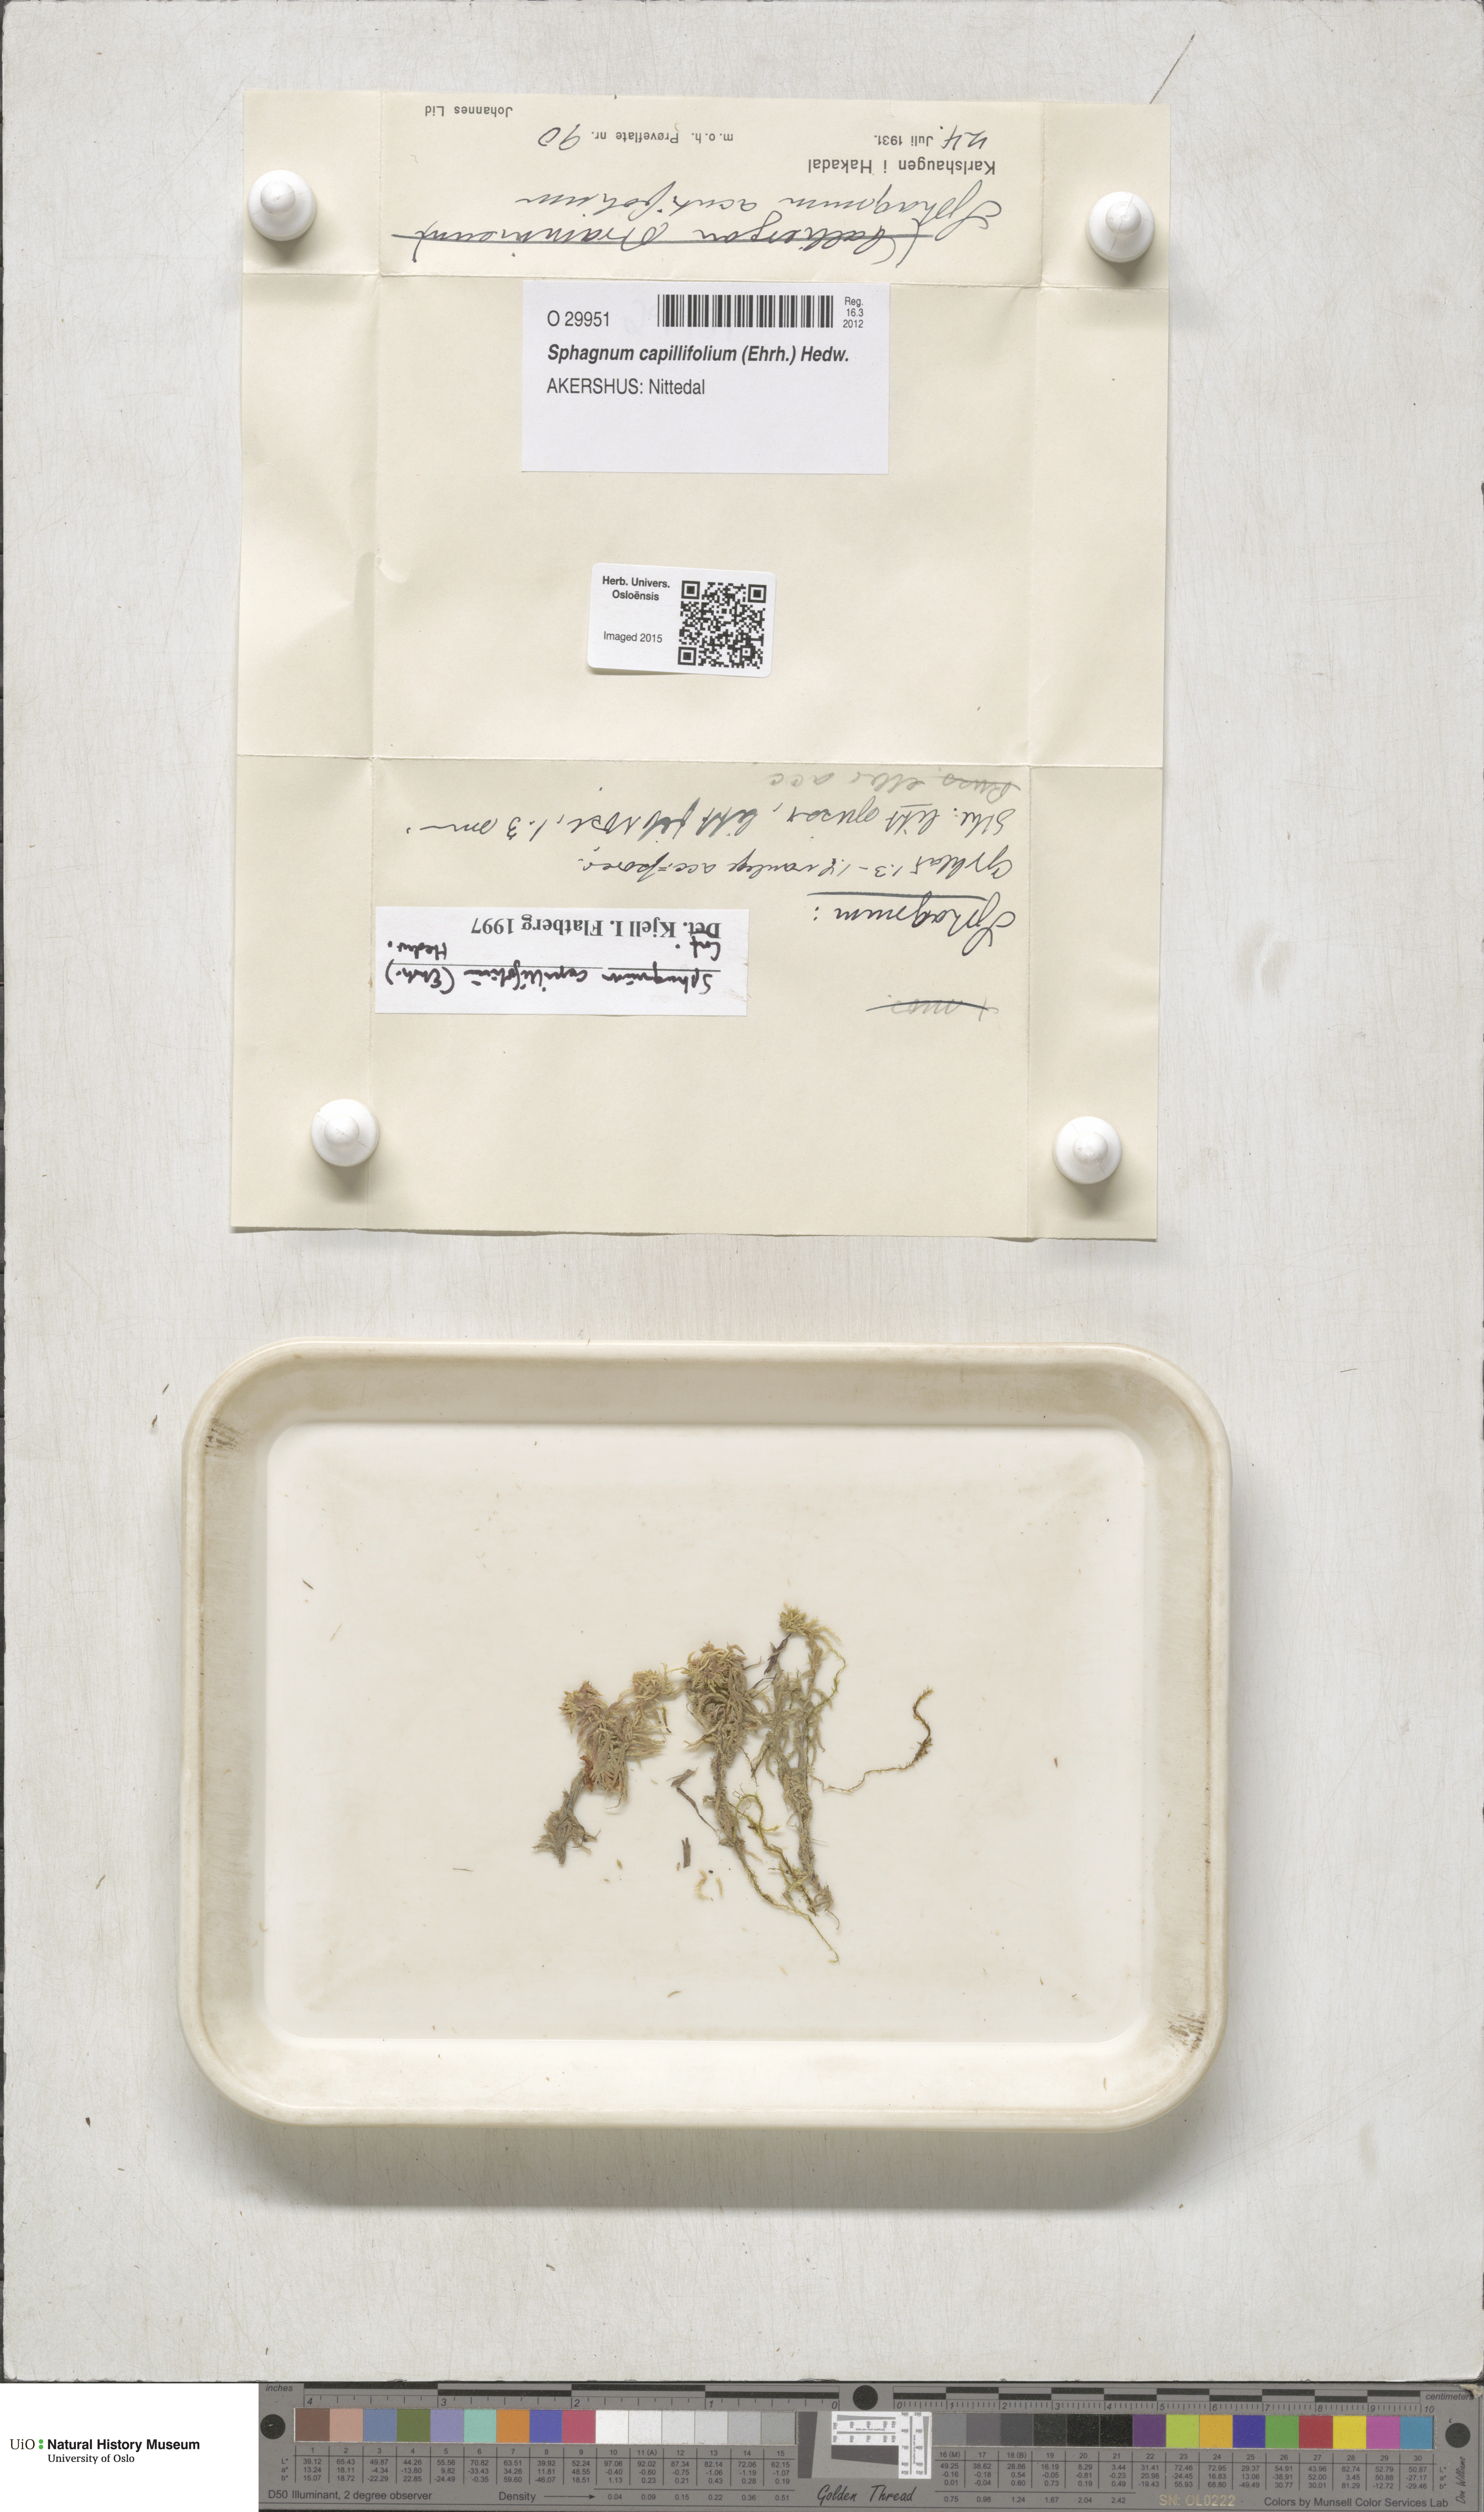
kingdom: Plantae
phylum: Bryophyta
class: Sphagnopsida
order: Sphagnales
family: Sphagnaceae
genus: Sphagnum
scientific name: Sphagnum capillifolium
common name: Small red peat moss
